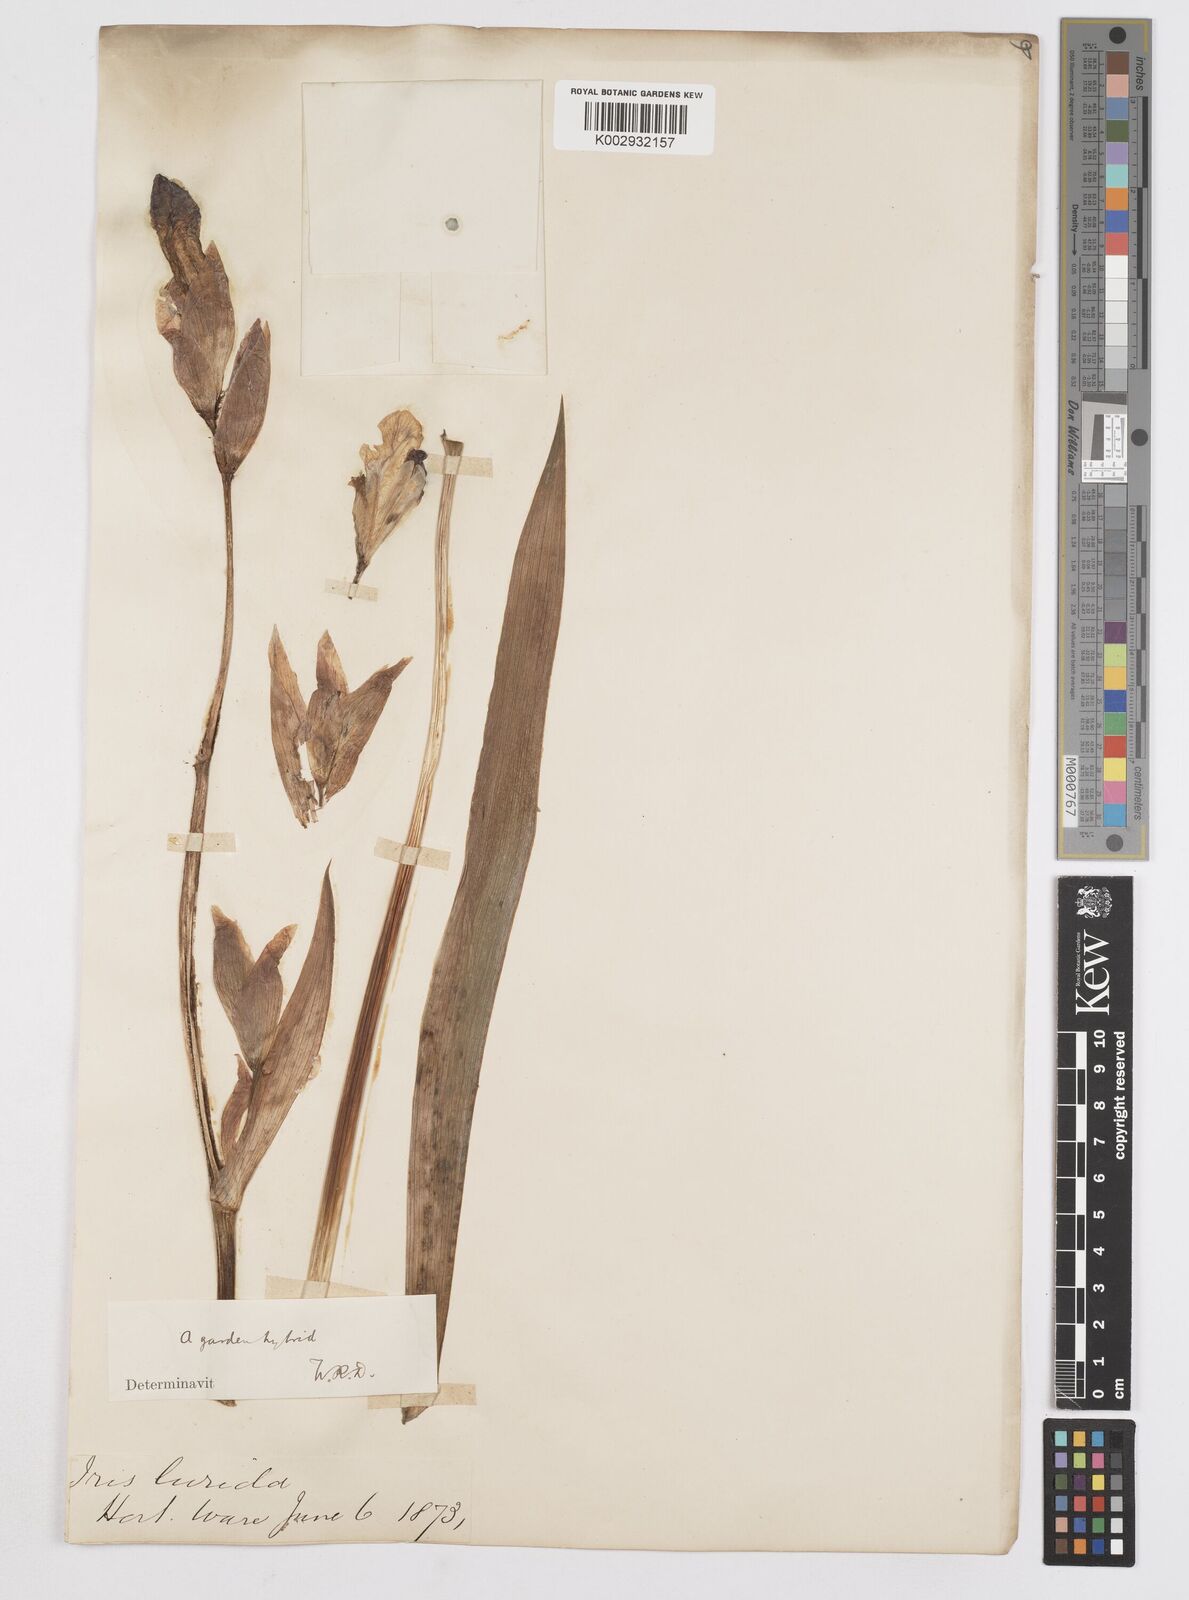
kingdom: Plantae
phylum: Tracheophyta
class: Liliopsida
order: Asparagales
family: Iridaceae
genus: Iris
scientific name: Iris sari
